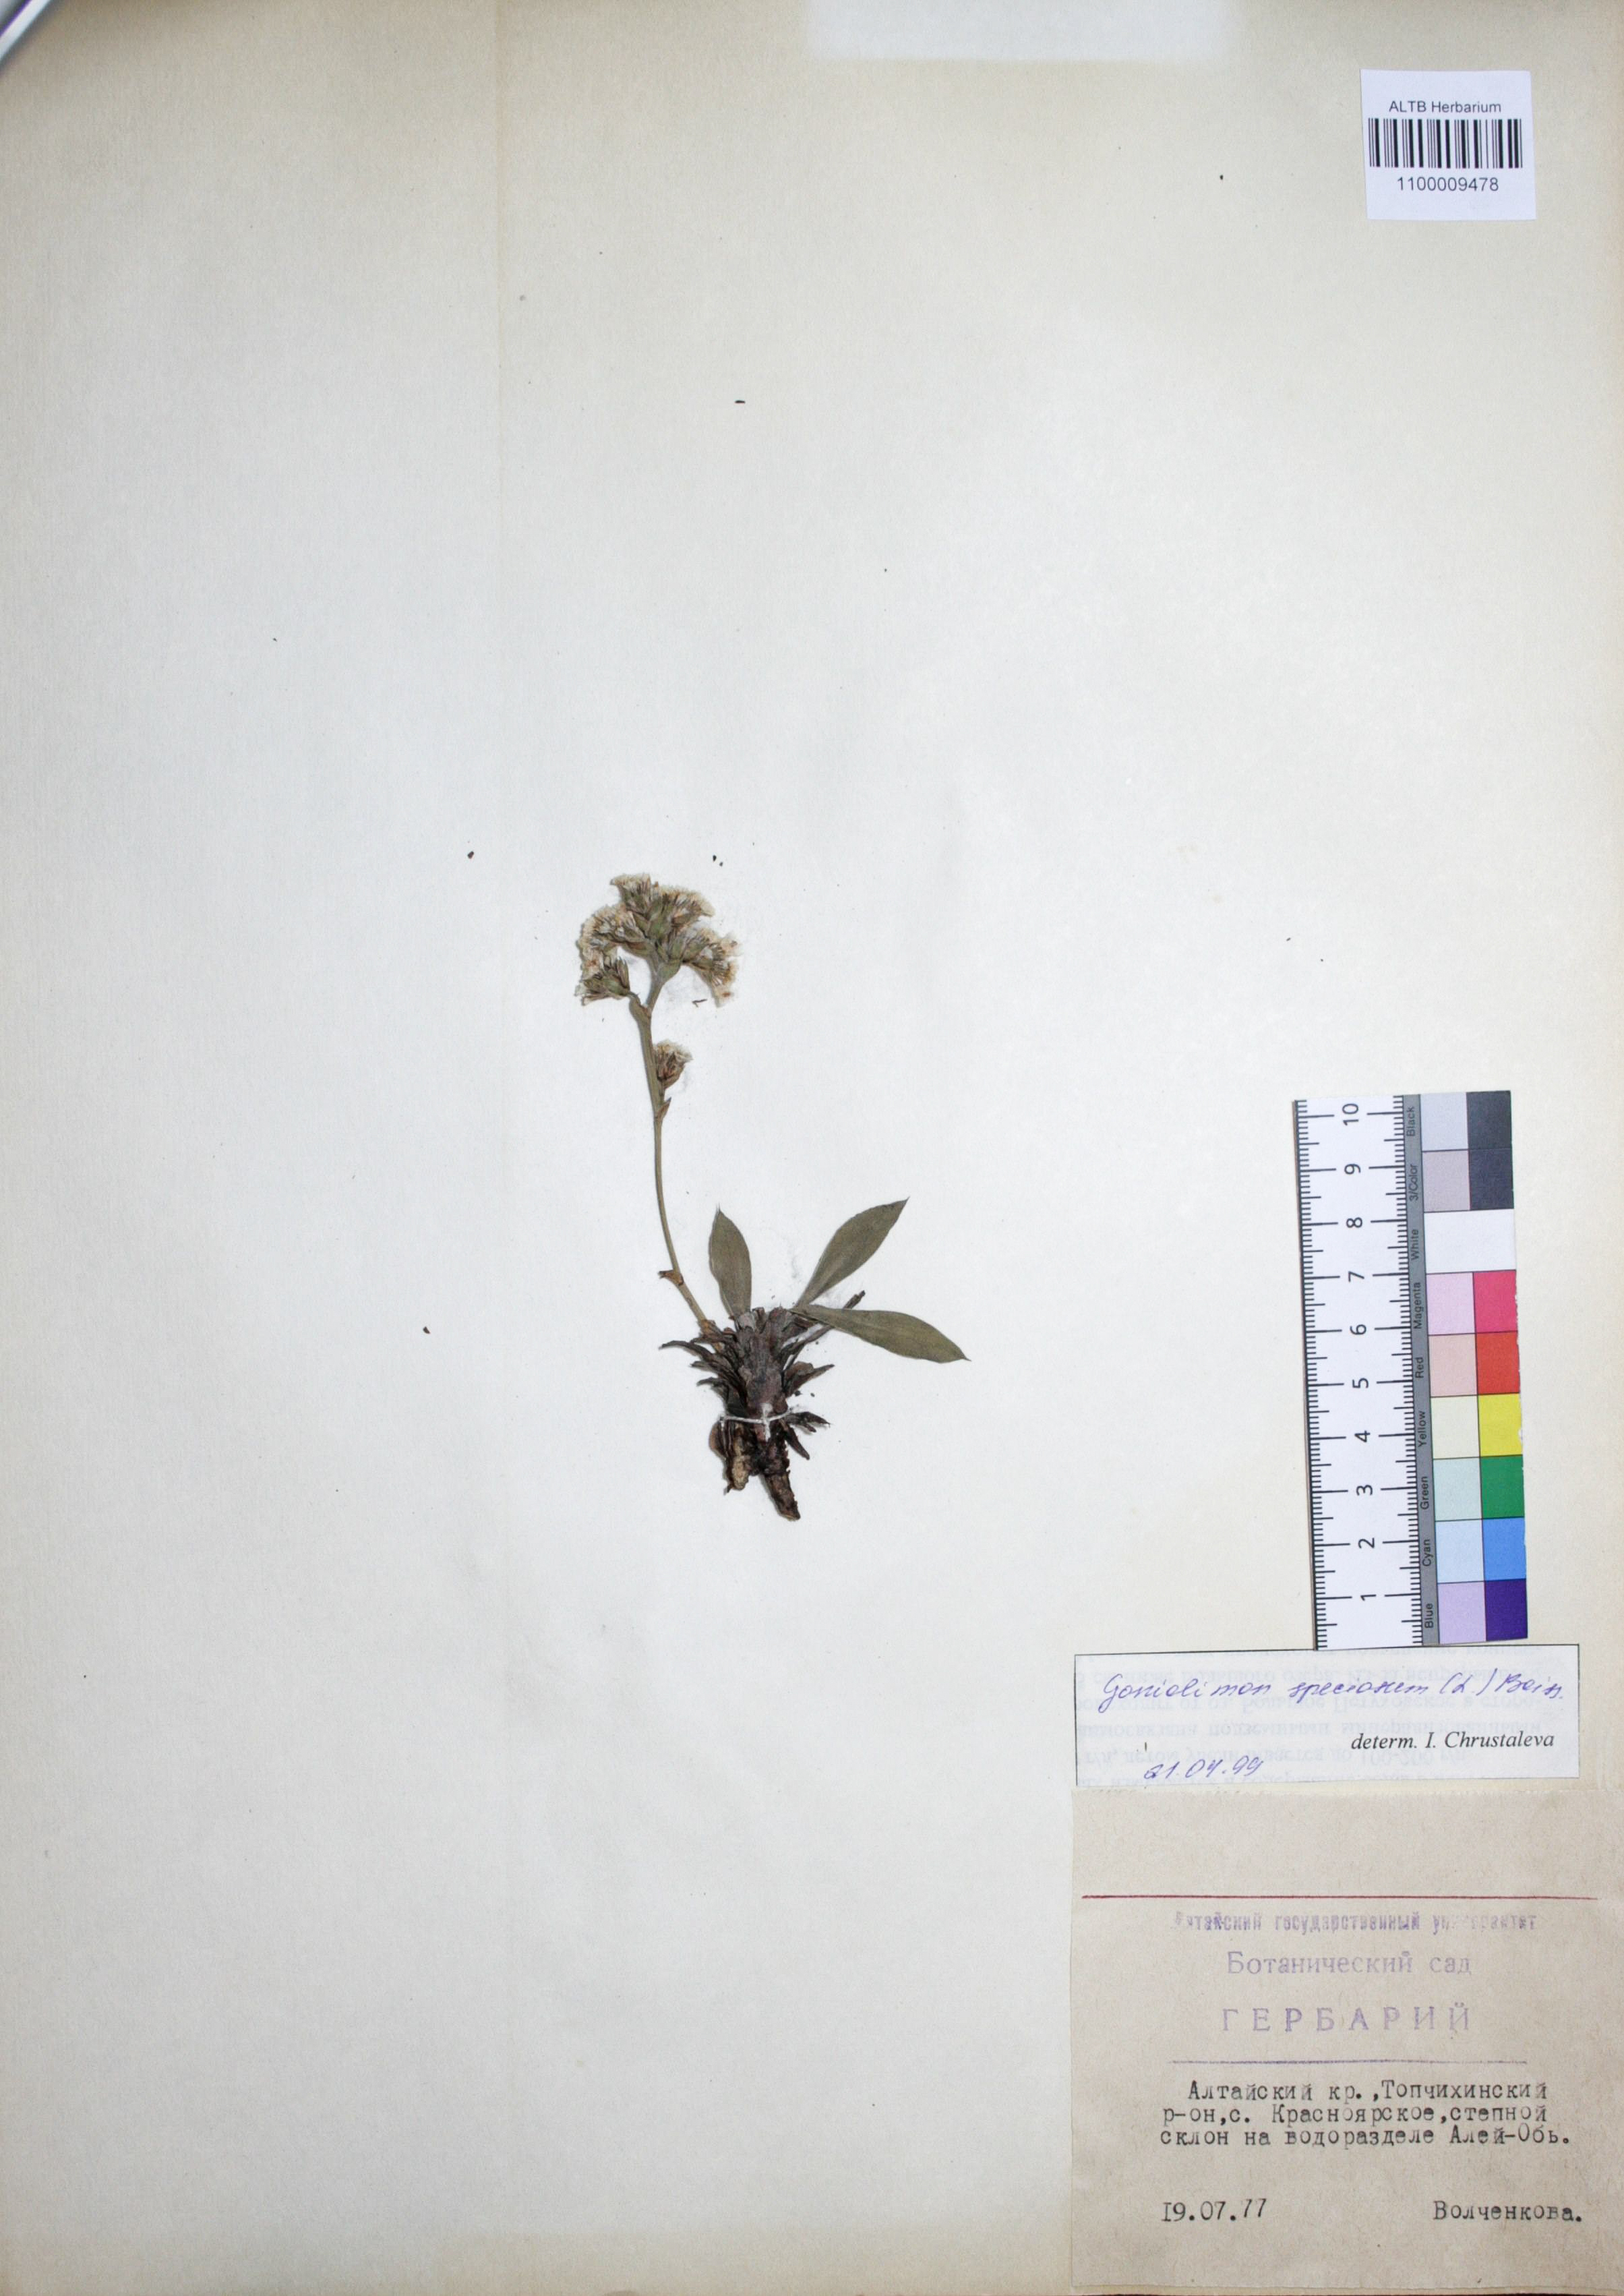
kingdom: Plantae
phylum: Tracheophyta
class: Magnoliopsida
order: Caryophyllales
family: Plumbaginaceae
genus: Goniolimon
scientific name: Goniolimon speciosum
